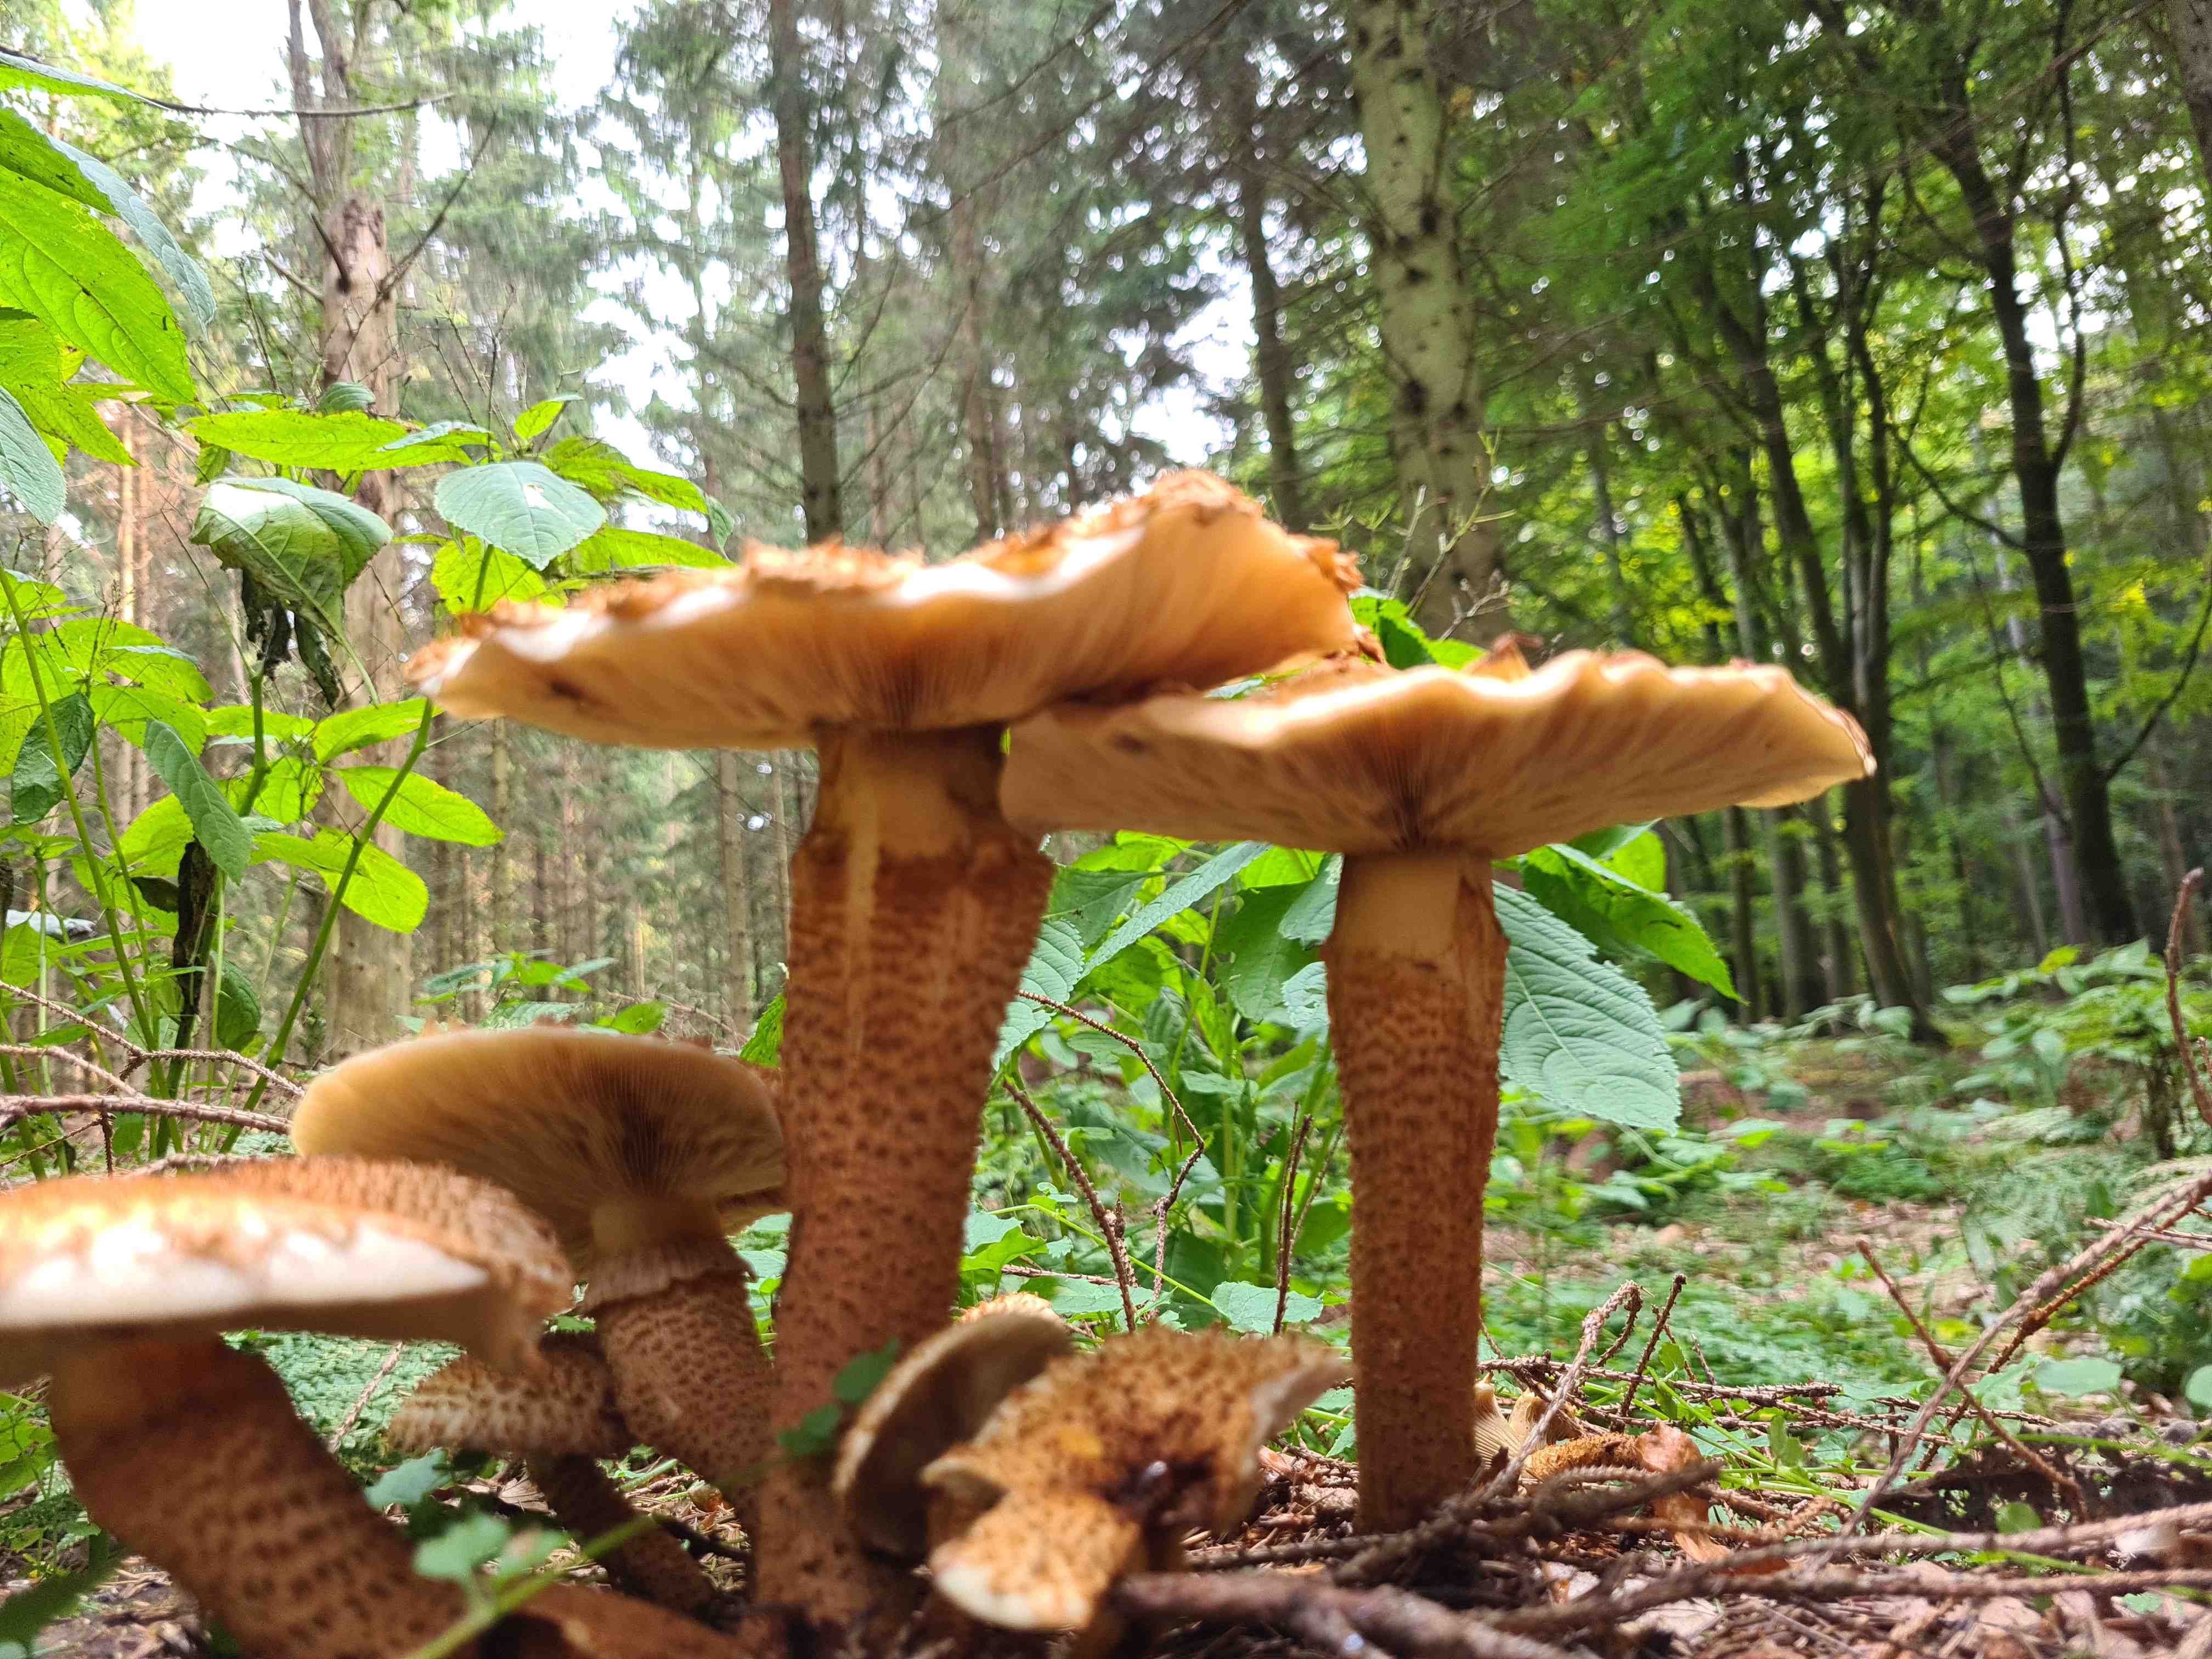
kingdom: Fungi
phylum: Basidiomycota
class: Agaricomycetes
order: Agaricales
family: Strophariaceae
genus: Pholiota
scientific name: Pholiota squarrosa
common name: krumskællet skælhat
